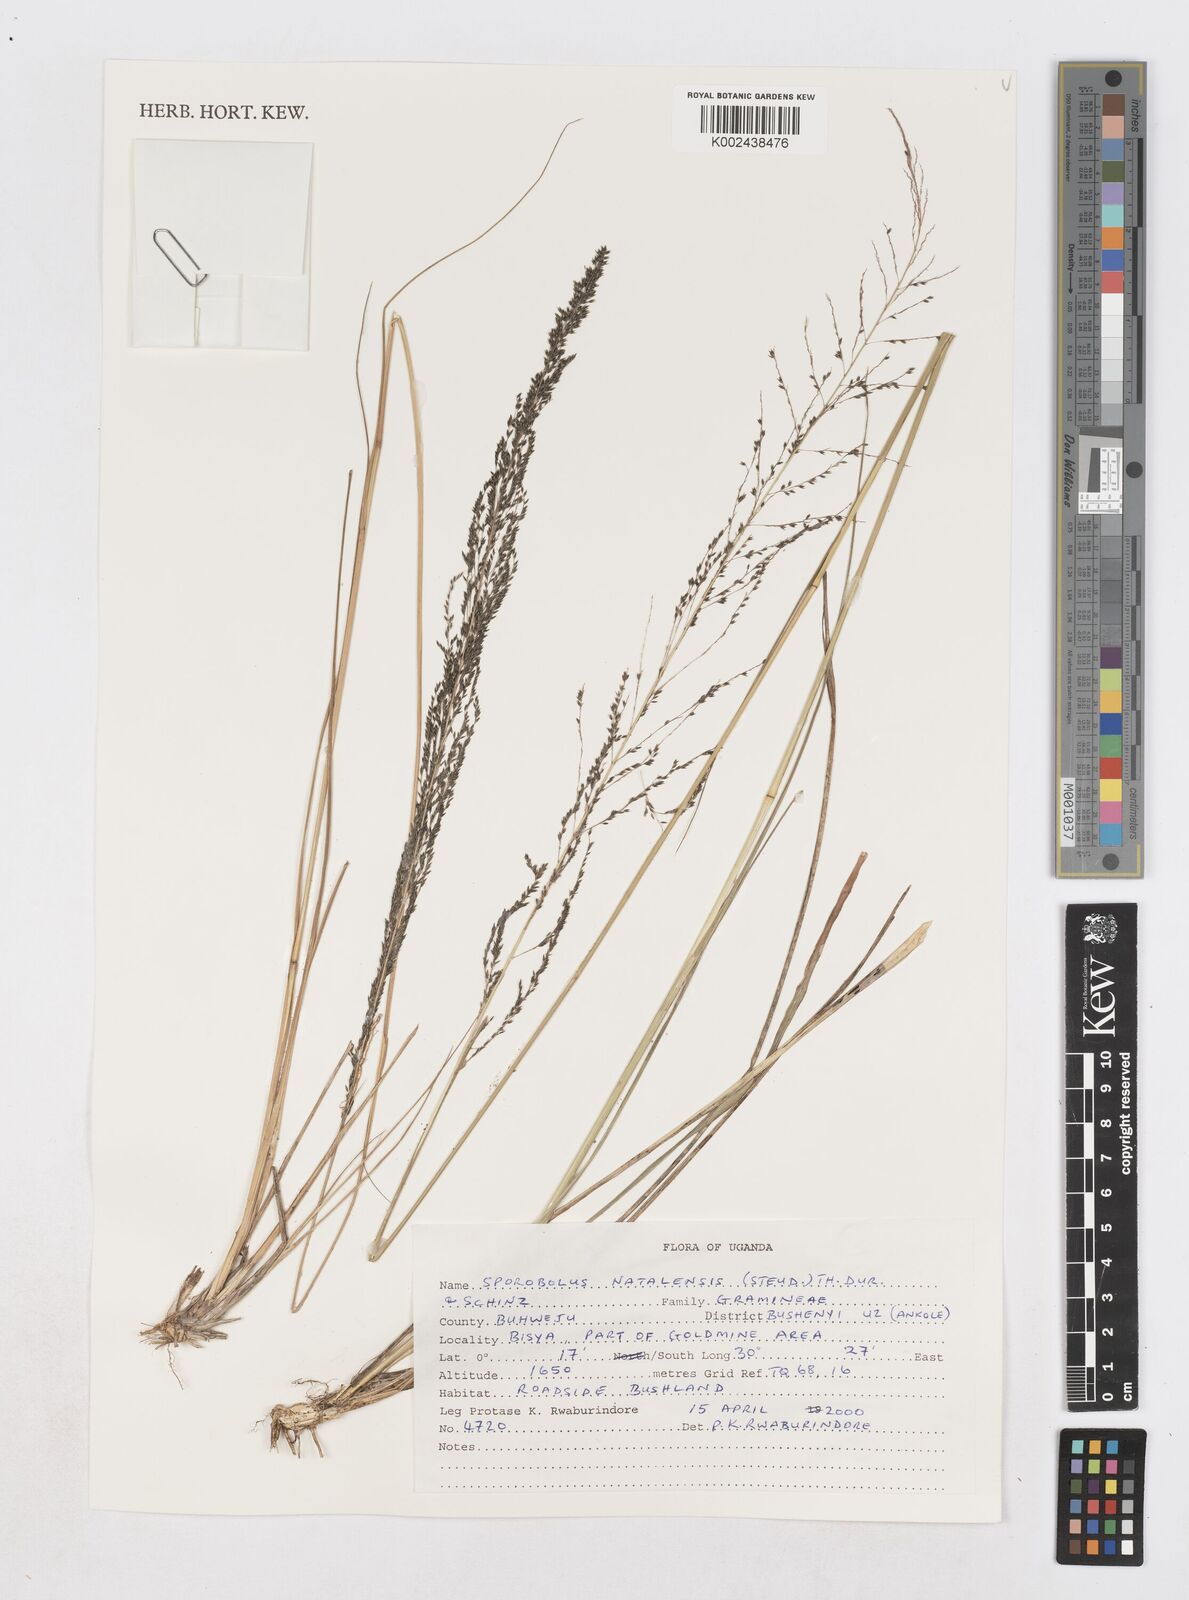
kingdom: Plantae
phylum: Tracheophyta
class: Liliopsida
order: Poales
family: Poaceae
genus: Sporobolus
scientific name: Sporobolus natalensis
